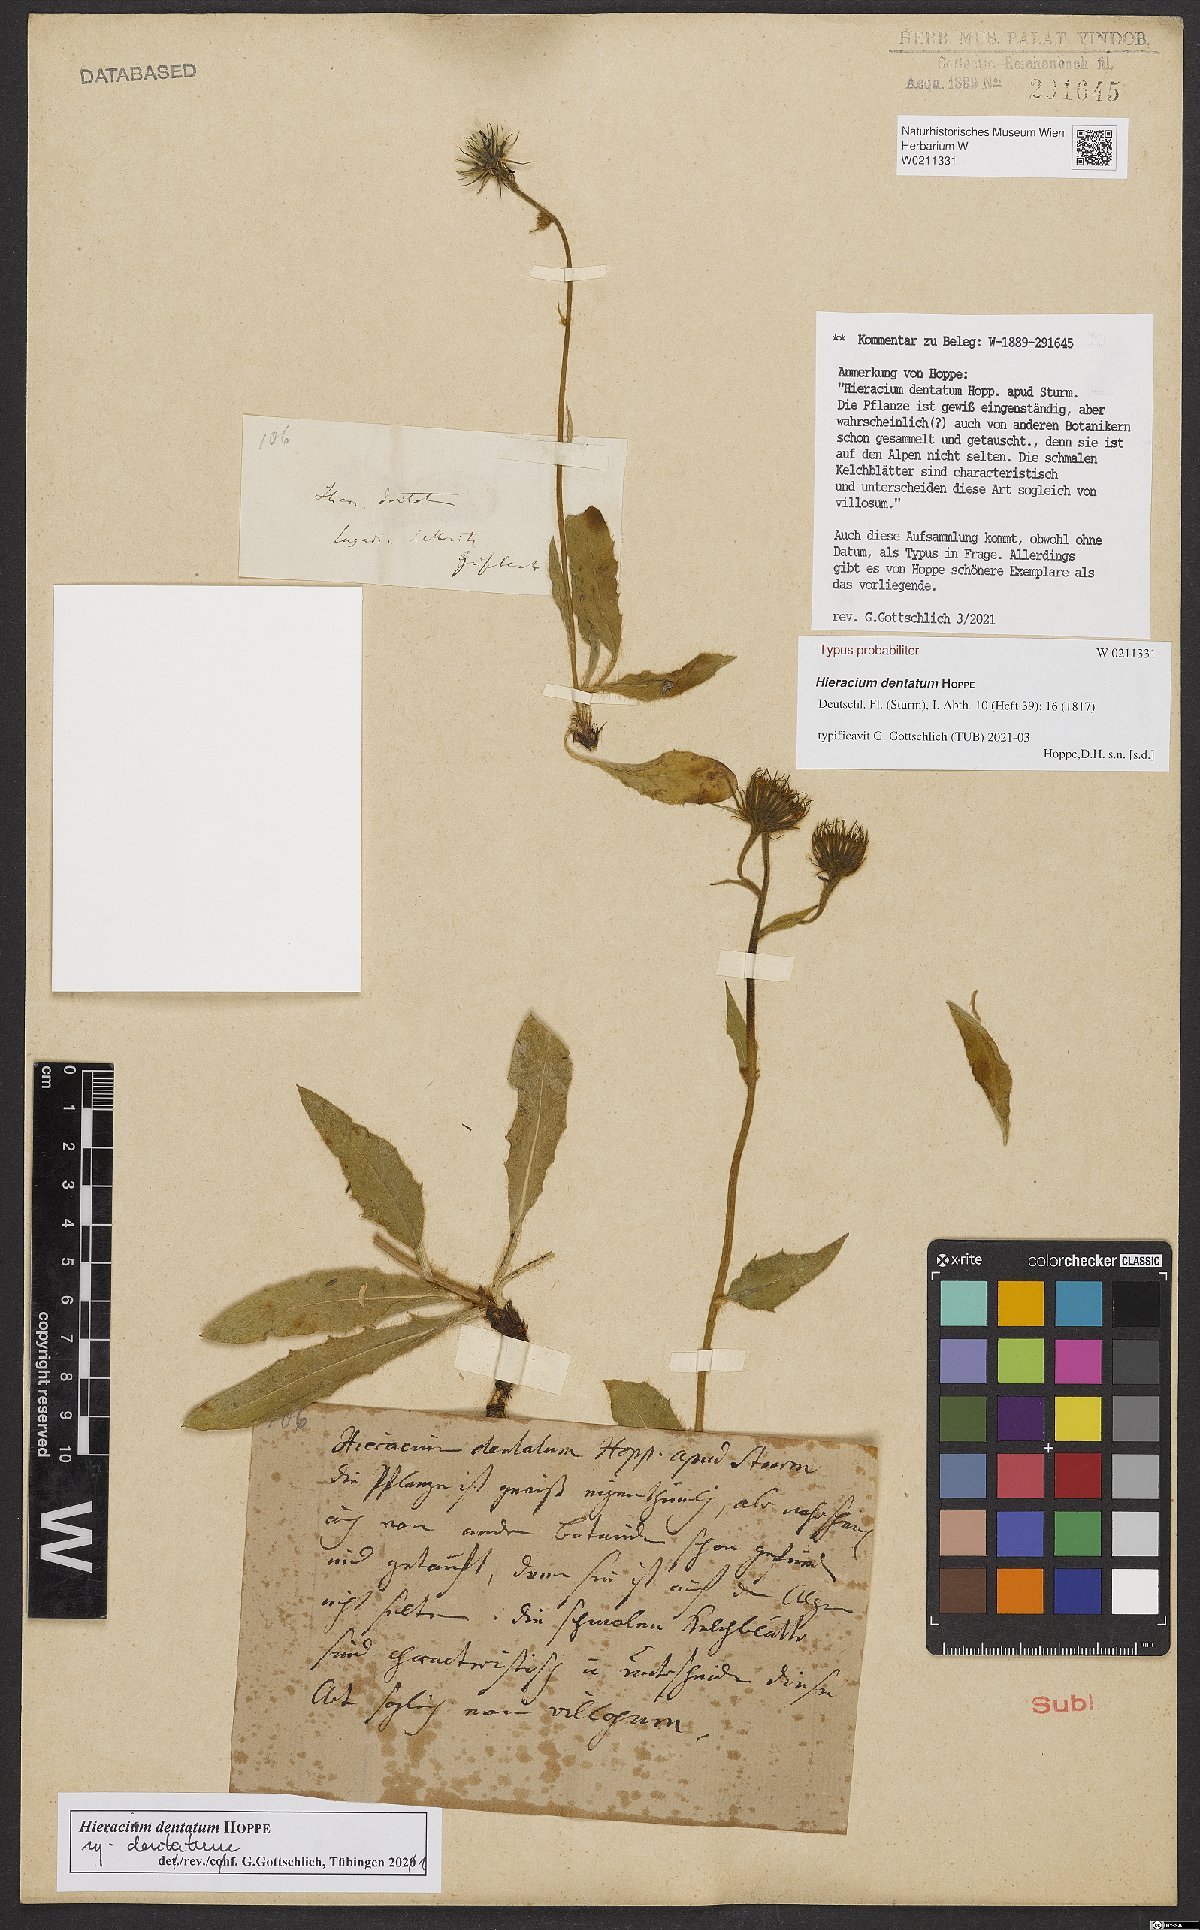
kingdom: Plantae
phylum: Tracheophyta
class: Magnoliopsida
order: Asterales
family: Asteraceae
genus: Hieracium
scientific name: Hieracium dentatum
